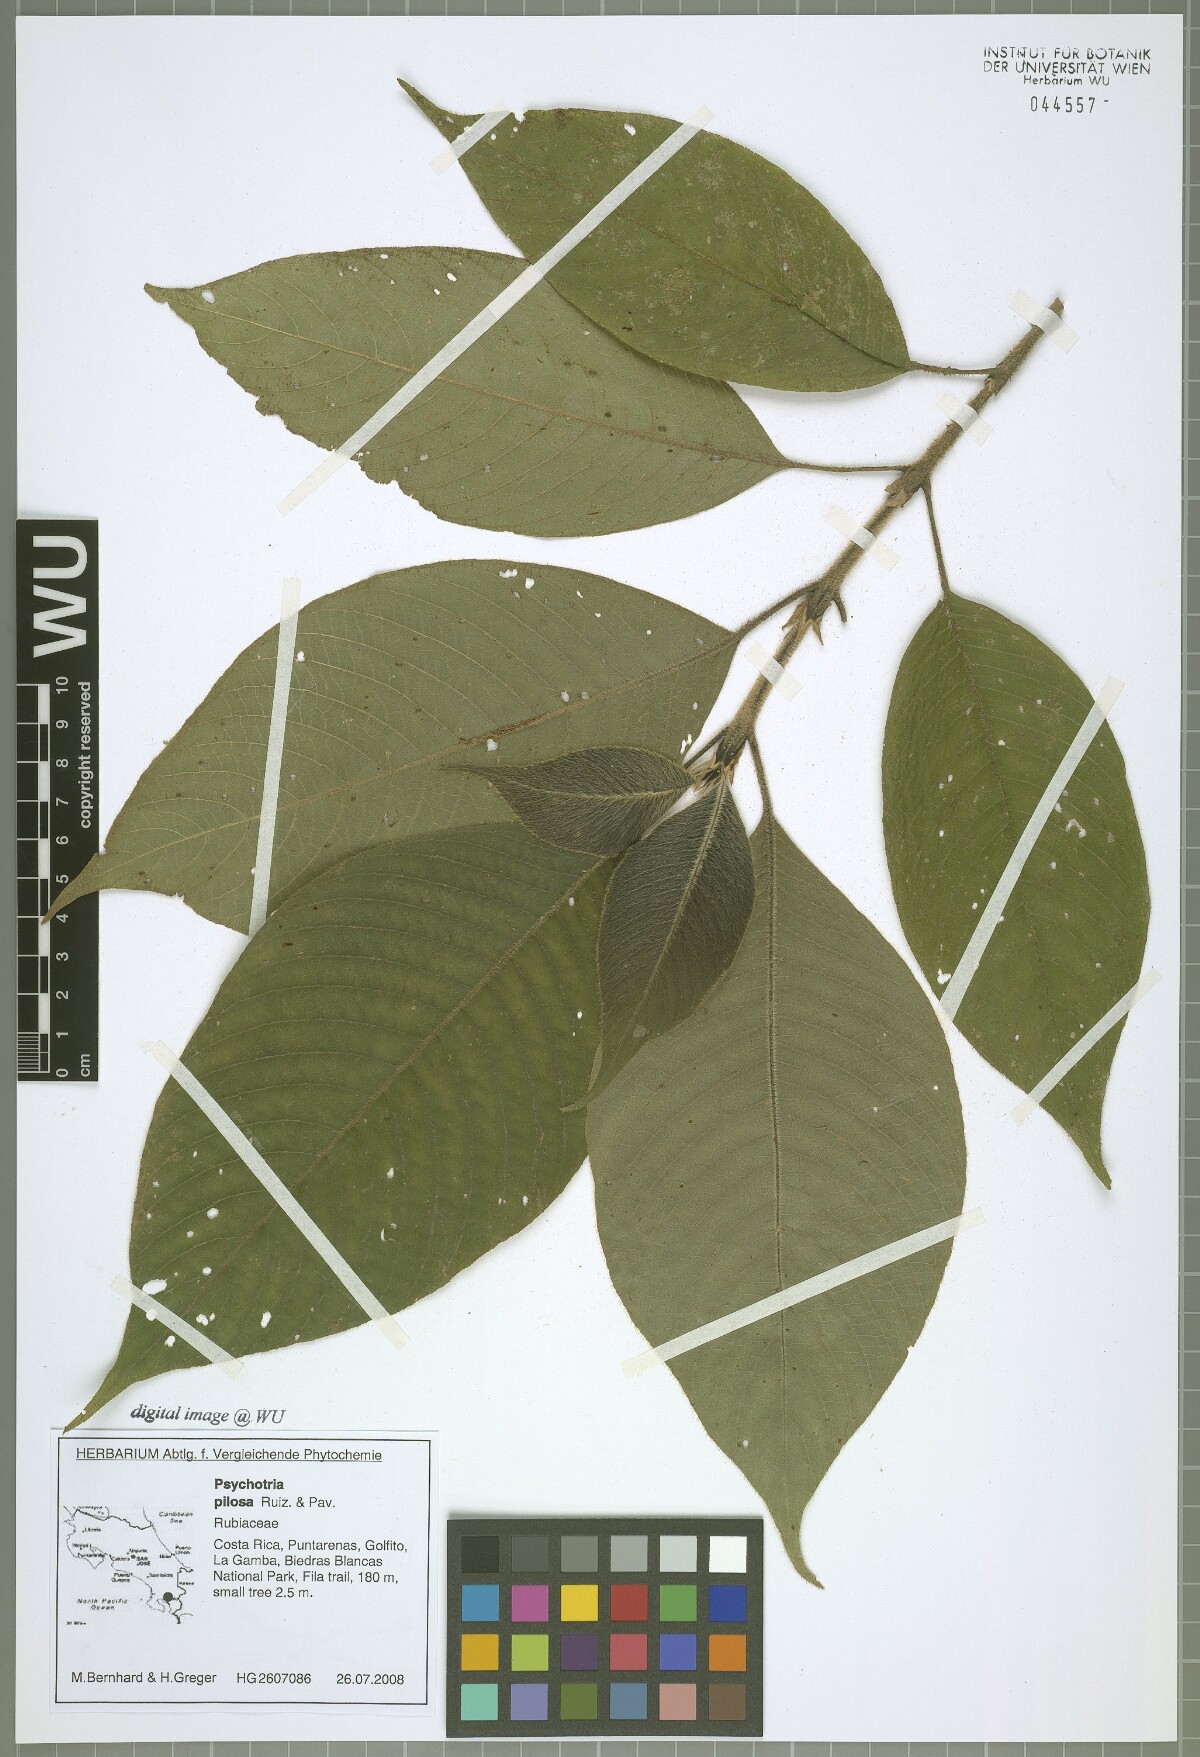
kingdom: Plantae
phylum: Tracheophyta
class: Magnoliopsida
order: Gentianales
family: Rubiaceae
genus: Palicourea
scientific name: Palicourea pilosa
